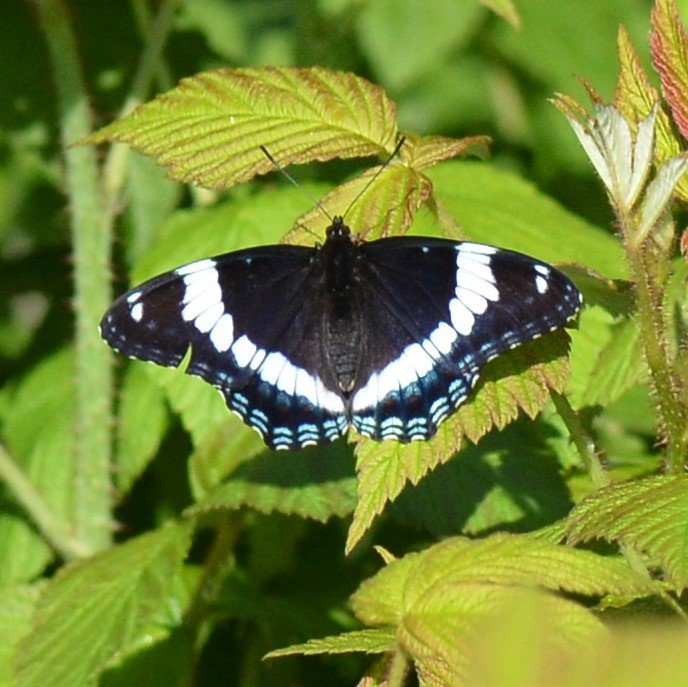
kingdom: Animalia
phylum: Arthropoda
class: Insecta
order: Lepidoptera
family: Nymphalidae
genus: Limenitis
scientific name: Limenitis arthemis
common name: Red-spotted Admiral
